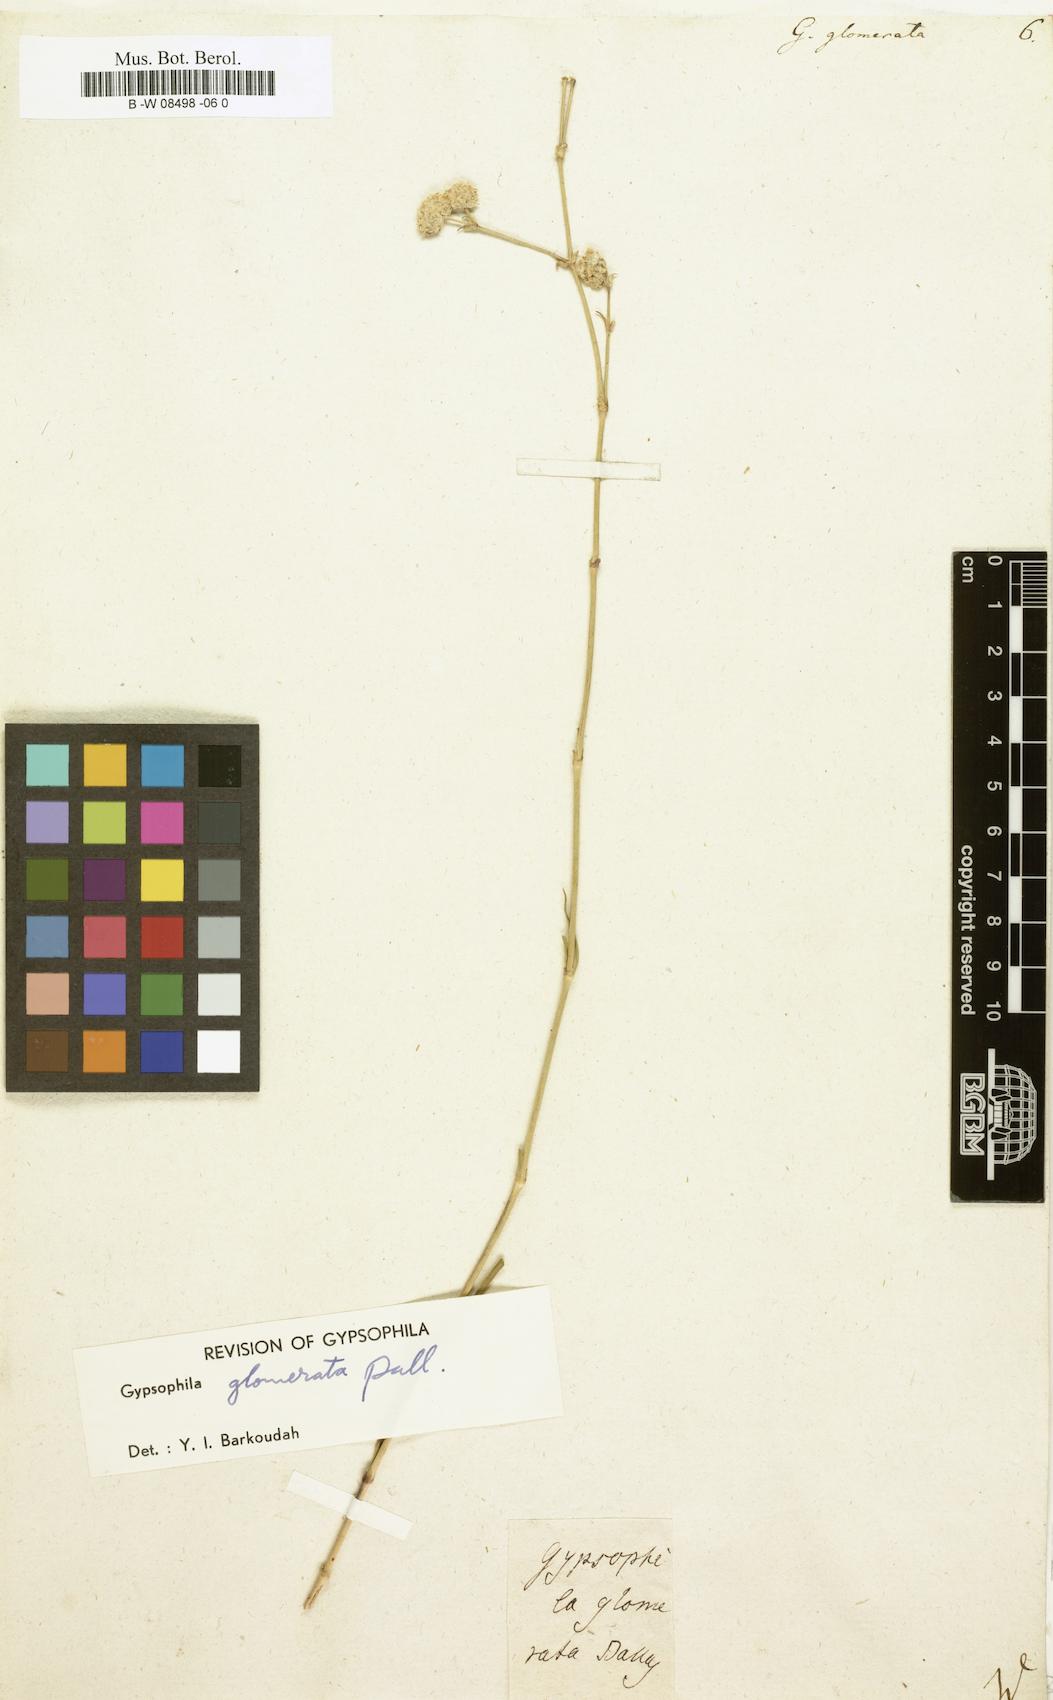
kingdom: Plantae
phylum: Tracheophyta
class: Magnoliopsida
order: Caryophyllales
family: Caryophyllaceae
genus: Gypsophila
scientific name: Gypsophila glomerata
